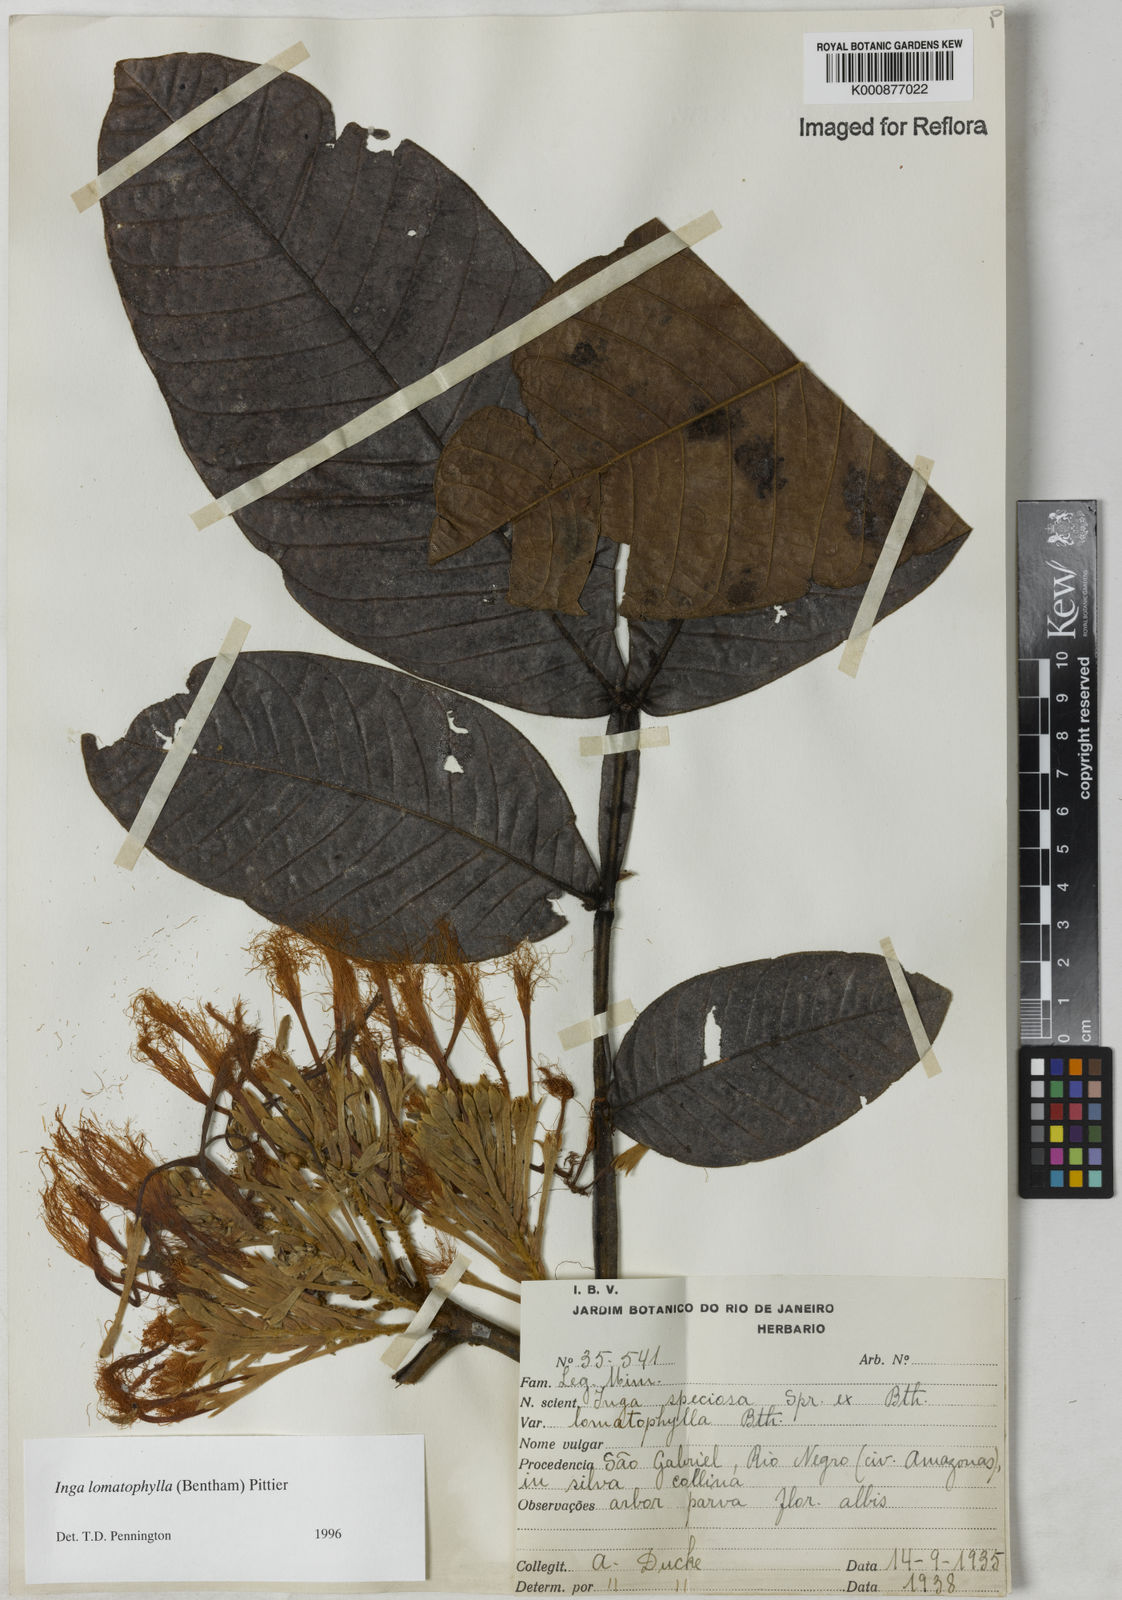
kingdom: Plantae
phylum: Tracheophyta
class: Magnoliopsida
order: Fabales
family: Fabaceae
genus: Inga
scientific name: Inga lomatophylla
